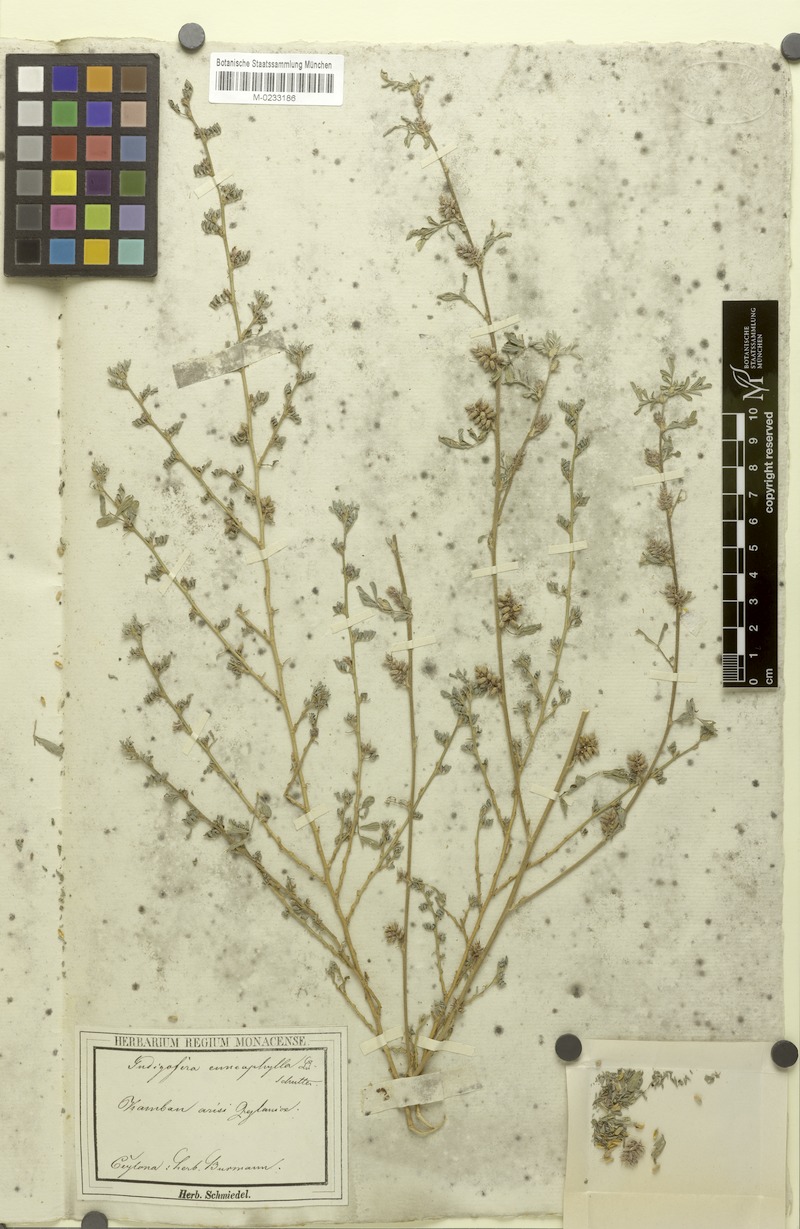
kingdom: Plantae
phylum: Tracheophyta
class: Magnoliopsida
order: Fabales
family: Fabaceae
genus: Indigofera
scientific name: Indigofera linnaei
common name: Nine-leaf indigo
